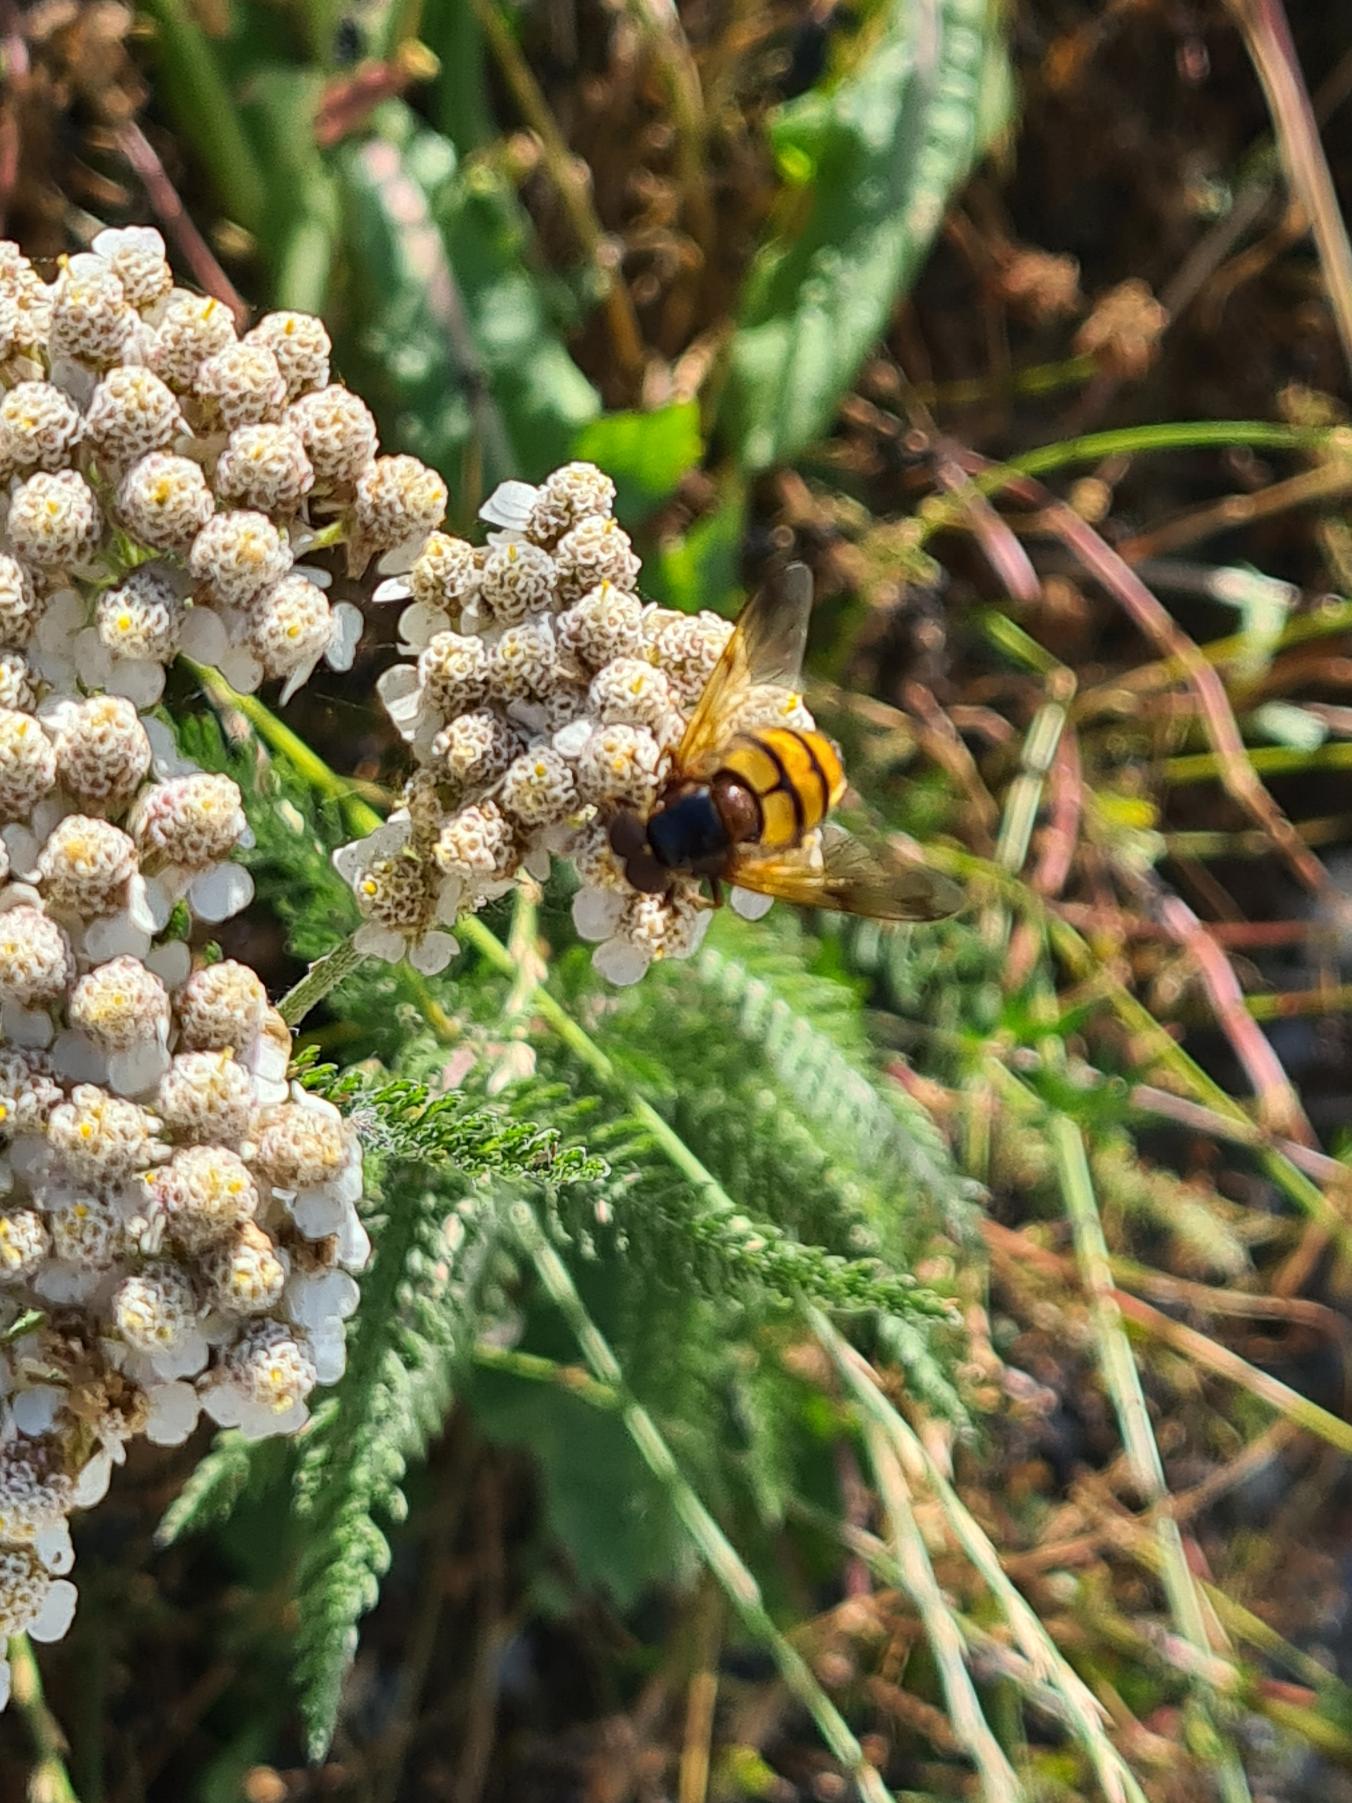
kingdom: Animalia
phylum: Arthropoda
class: Insecta
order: Diptera
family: Syrphidae
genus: Volucella
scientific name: Volucella inanis
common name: Gul humlesvirreflue
